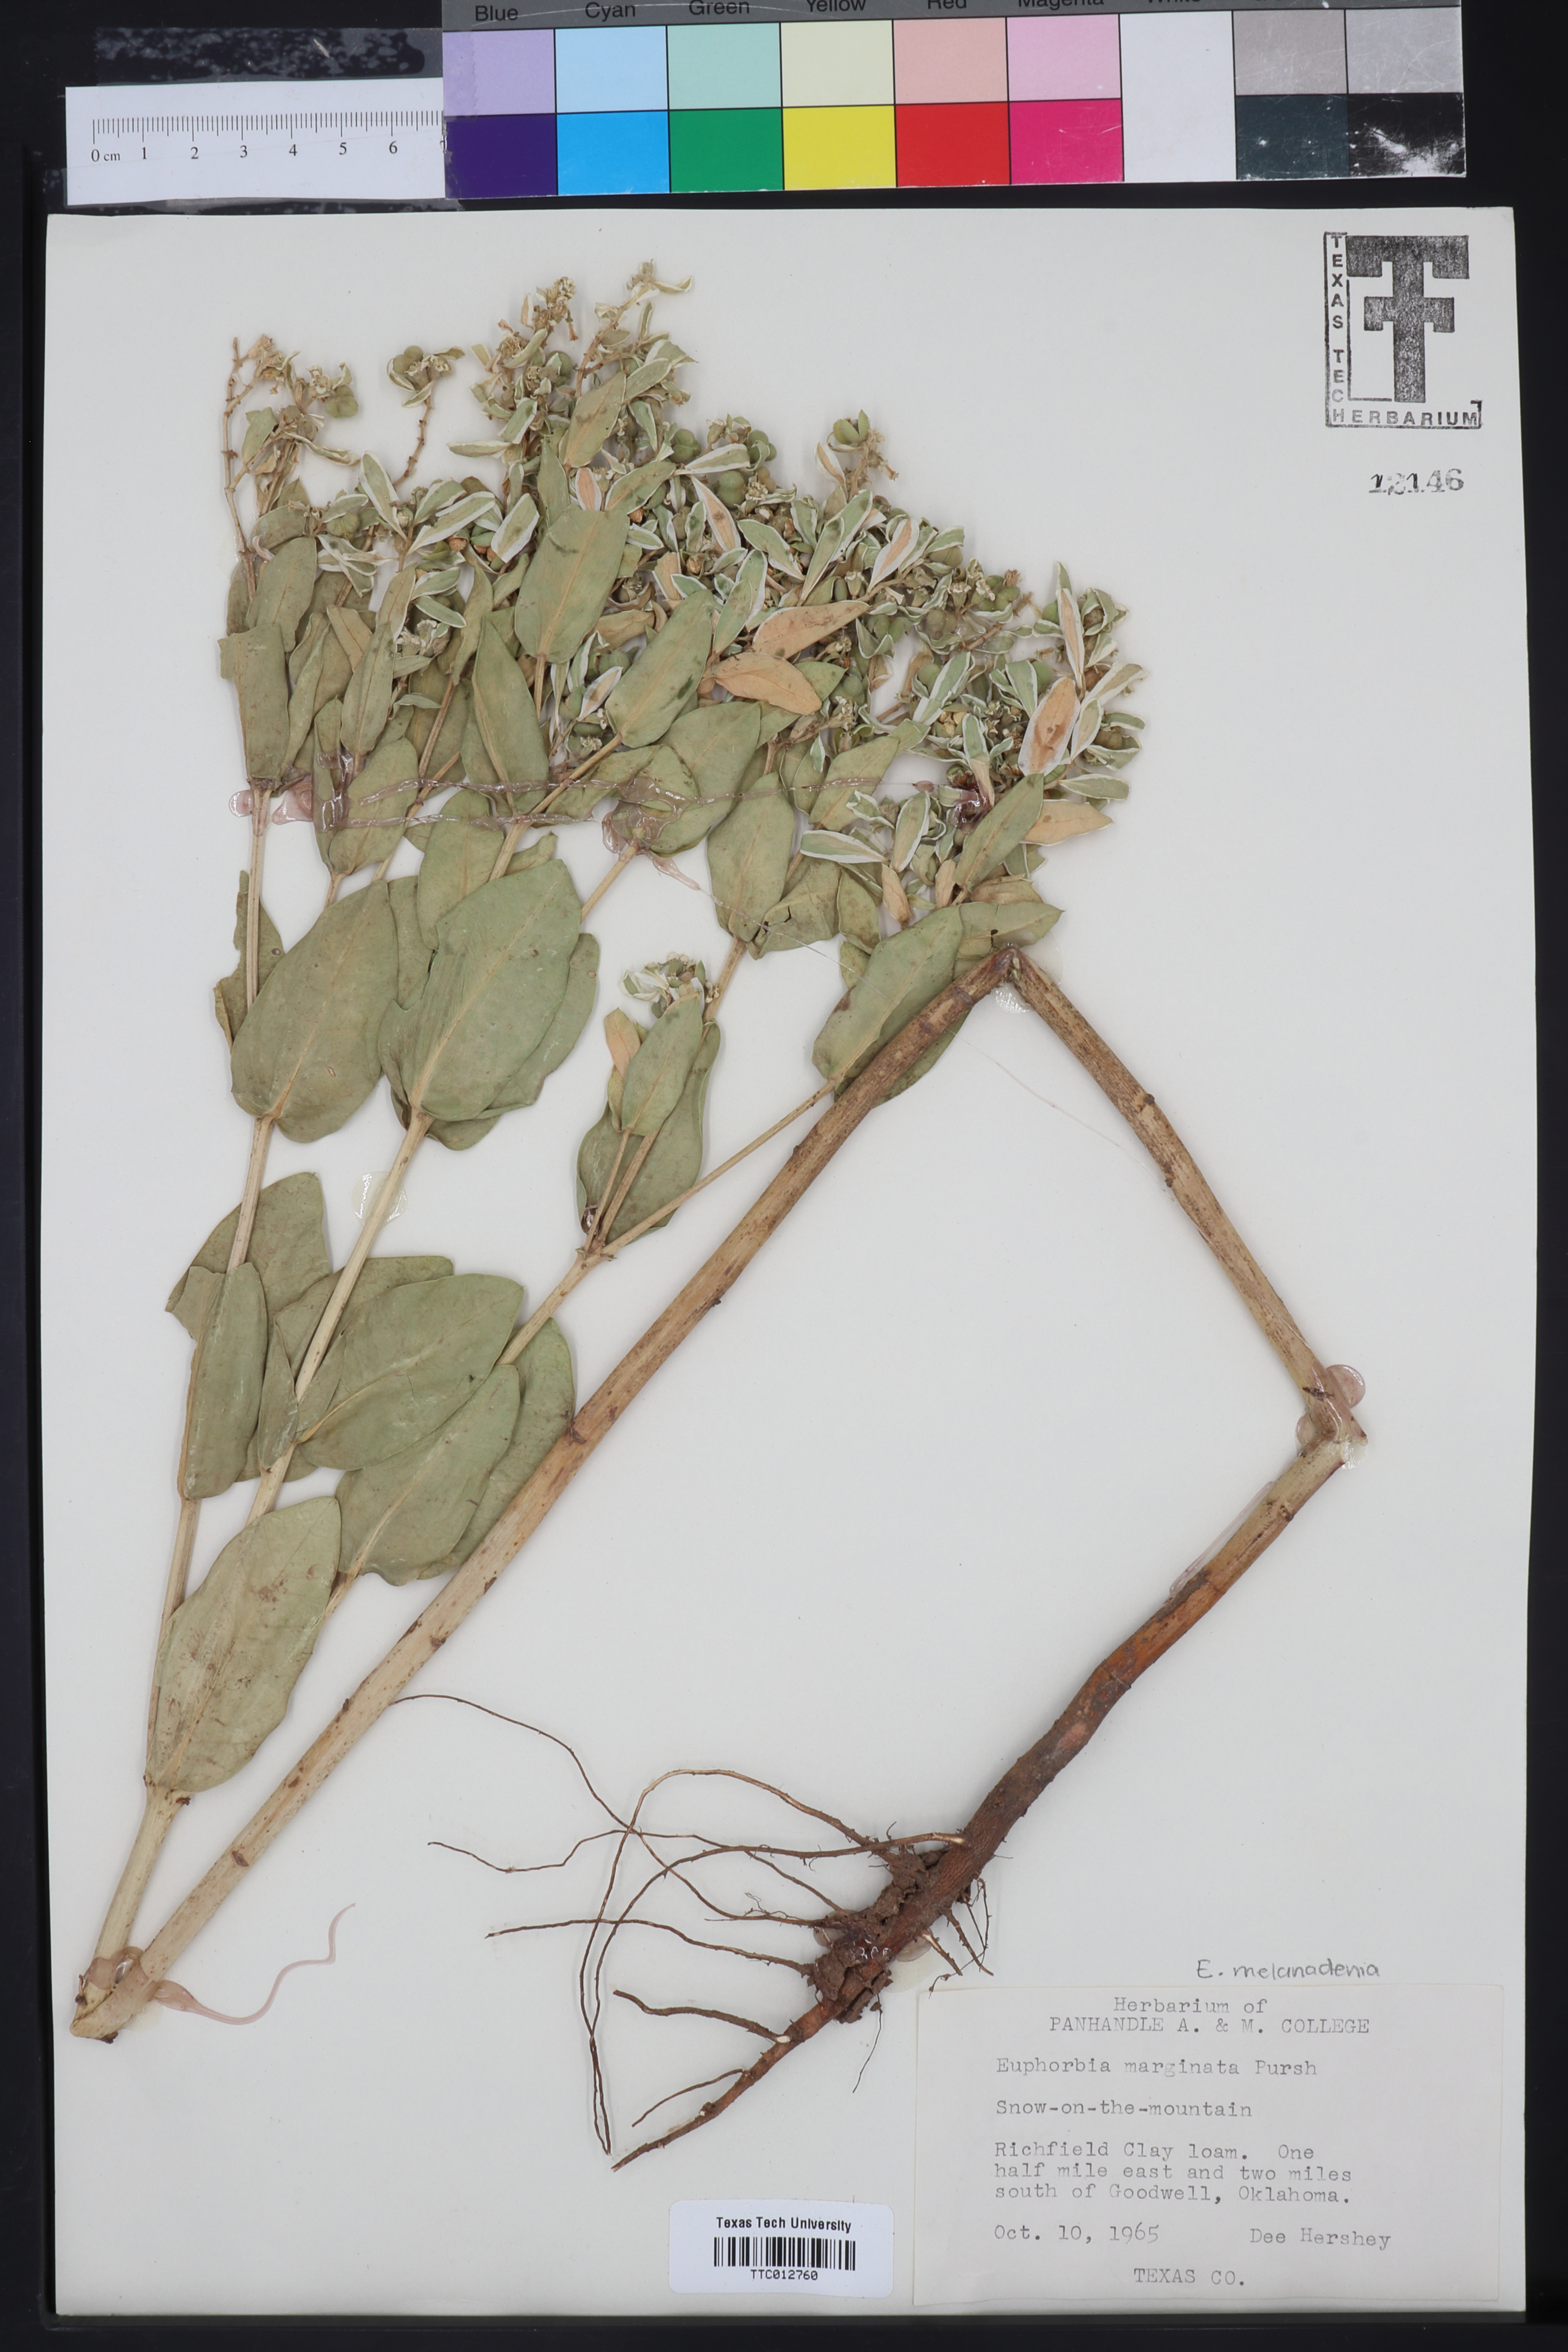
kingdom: Plantae
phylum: Tracheophyta
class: Magnoliopsida
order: Malpighiales
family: Euphorbiaceae
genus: Euphorbia
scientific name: Euphorbia marginata
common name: Ghostweed
